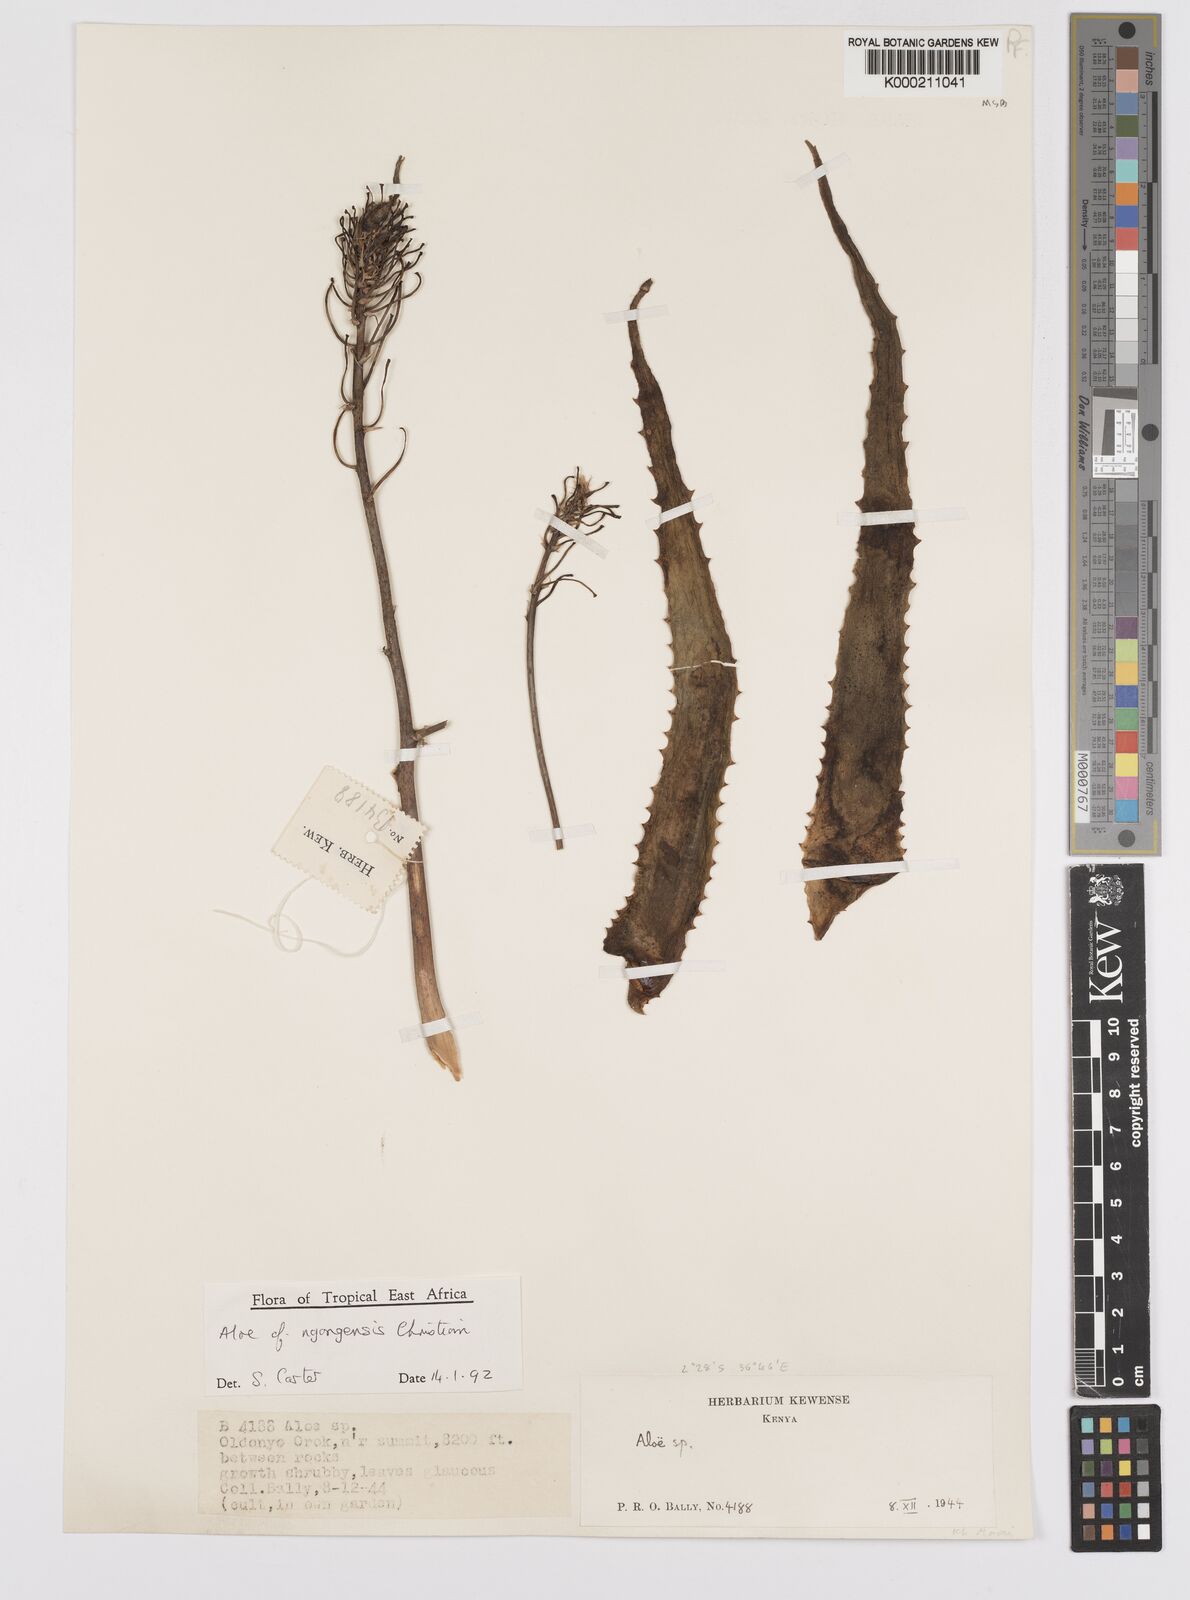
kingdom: Plantae
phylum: Tracheophyta
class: Liliopsida
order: Asparagales
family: Asphodelaceae
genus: Aloe
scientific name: Aloe ngongensis
